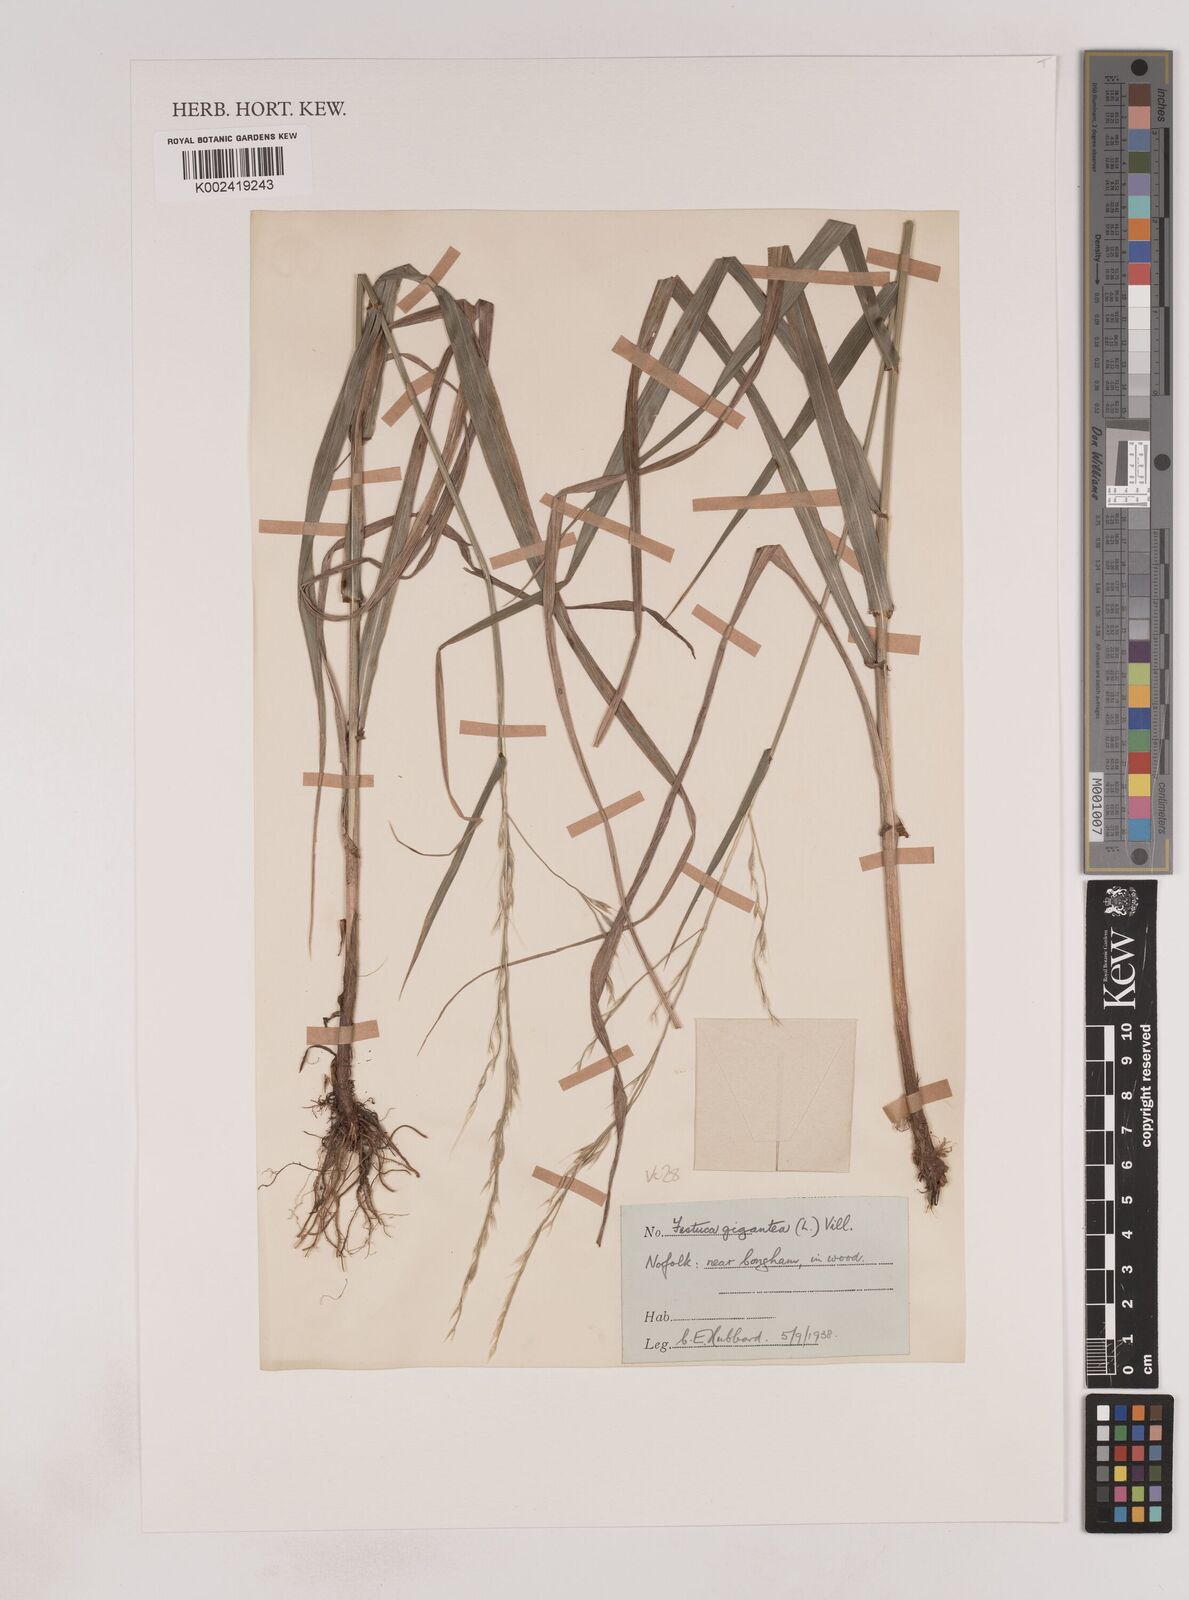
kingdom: Plantae
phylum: Tracheophyta
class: Liliopsida
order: Poales
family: Poaceae
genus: Lolium
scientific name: Lolium giganteum
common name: Giant fescue
